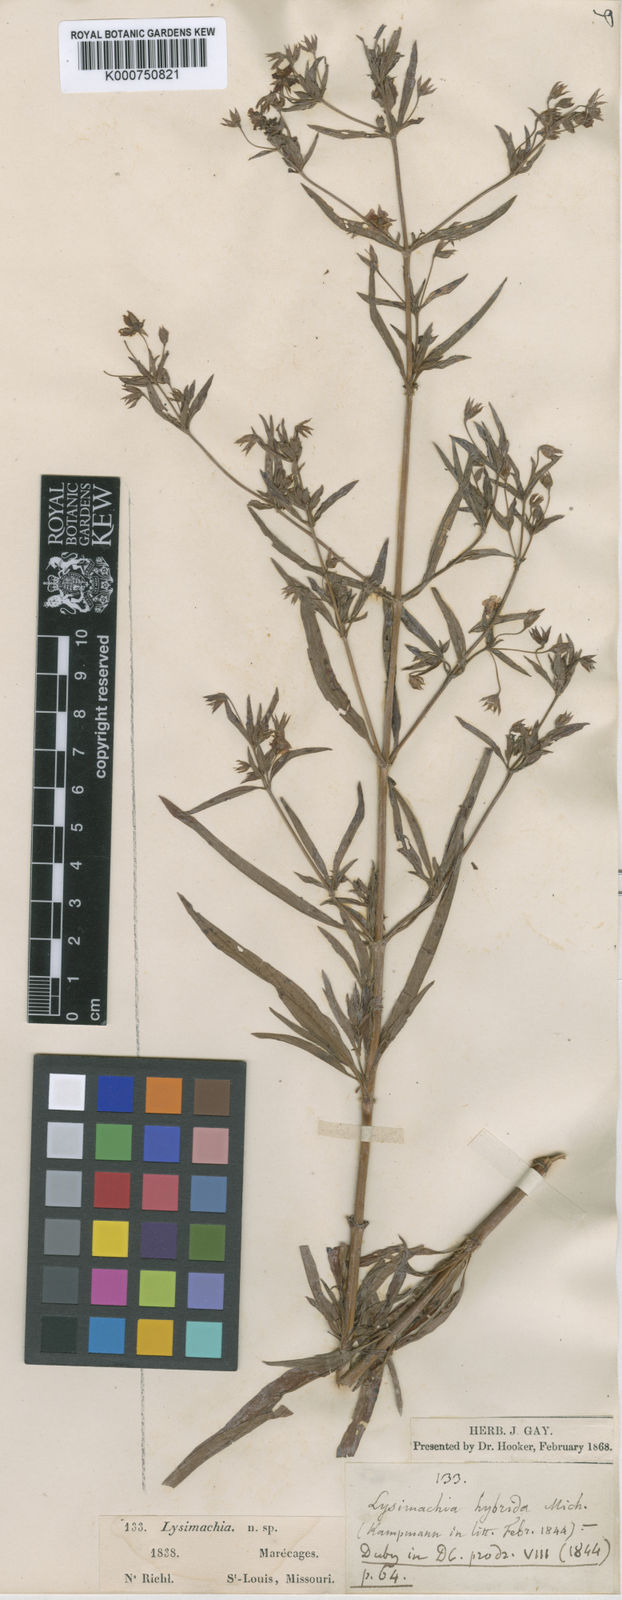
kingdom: Plantae
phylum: Tracheophyta
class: Magnoliopsida
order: Ericales
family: Primulaceae
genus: Lysimachia
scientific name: Lysimachia hybrida
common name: Lowland loosestrife
